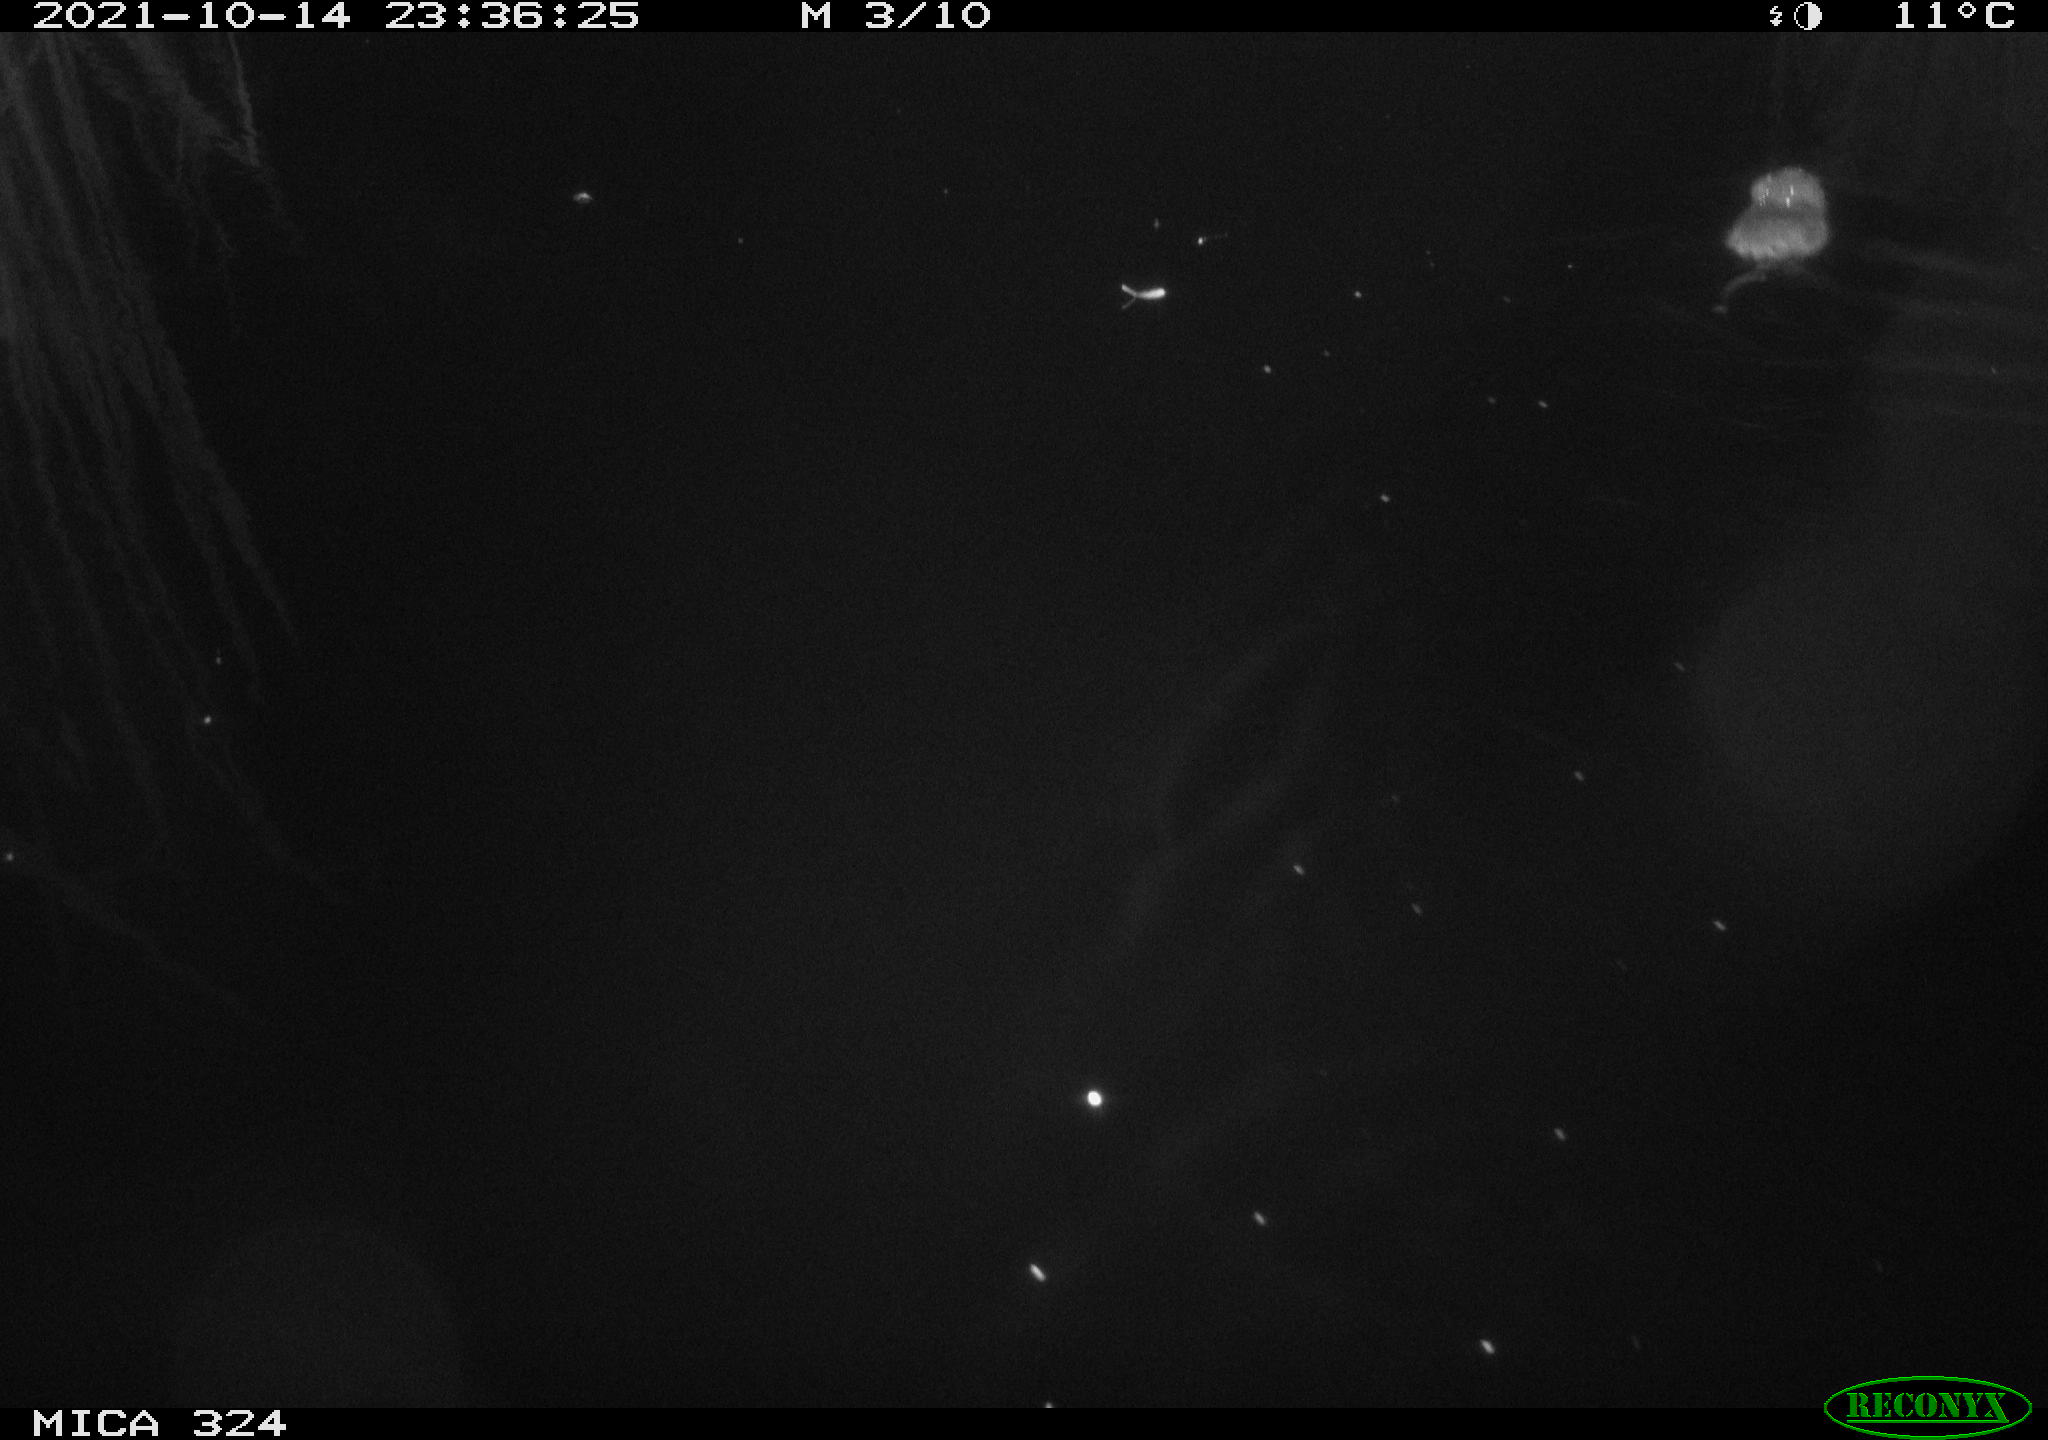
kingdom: Animalia
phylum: Chordata
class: Mammalia
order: Rodentia
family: Cricetidae
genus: Ondatra
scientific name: Ondatra zibethicus
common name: Muskrat
